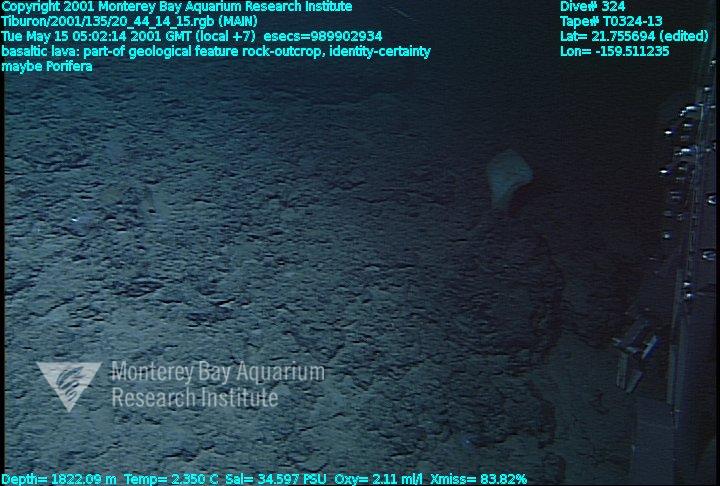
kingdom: Animalia
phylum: Porifera
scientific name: Porifera
